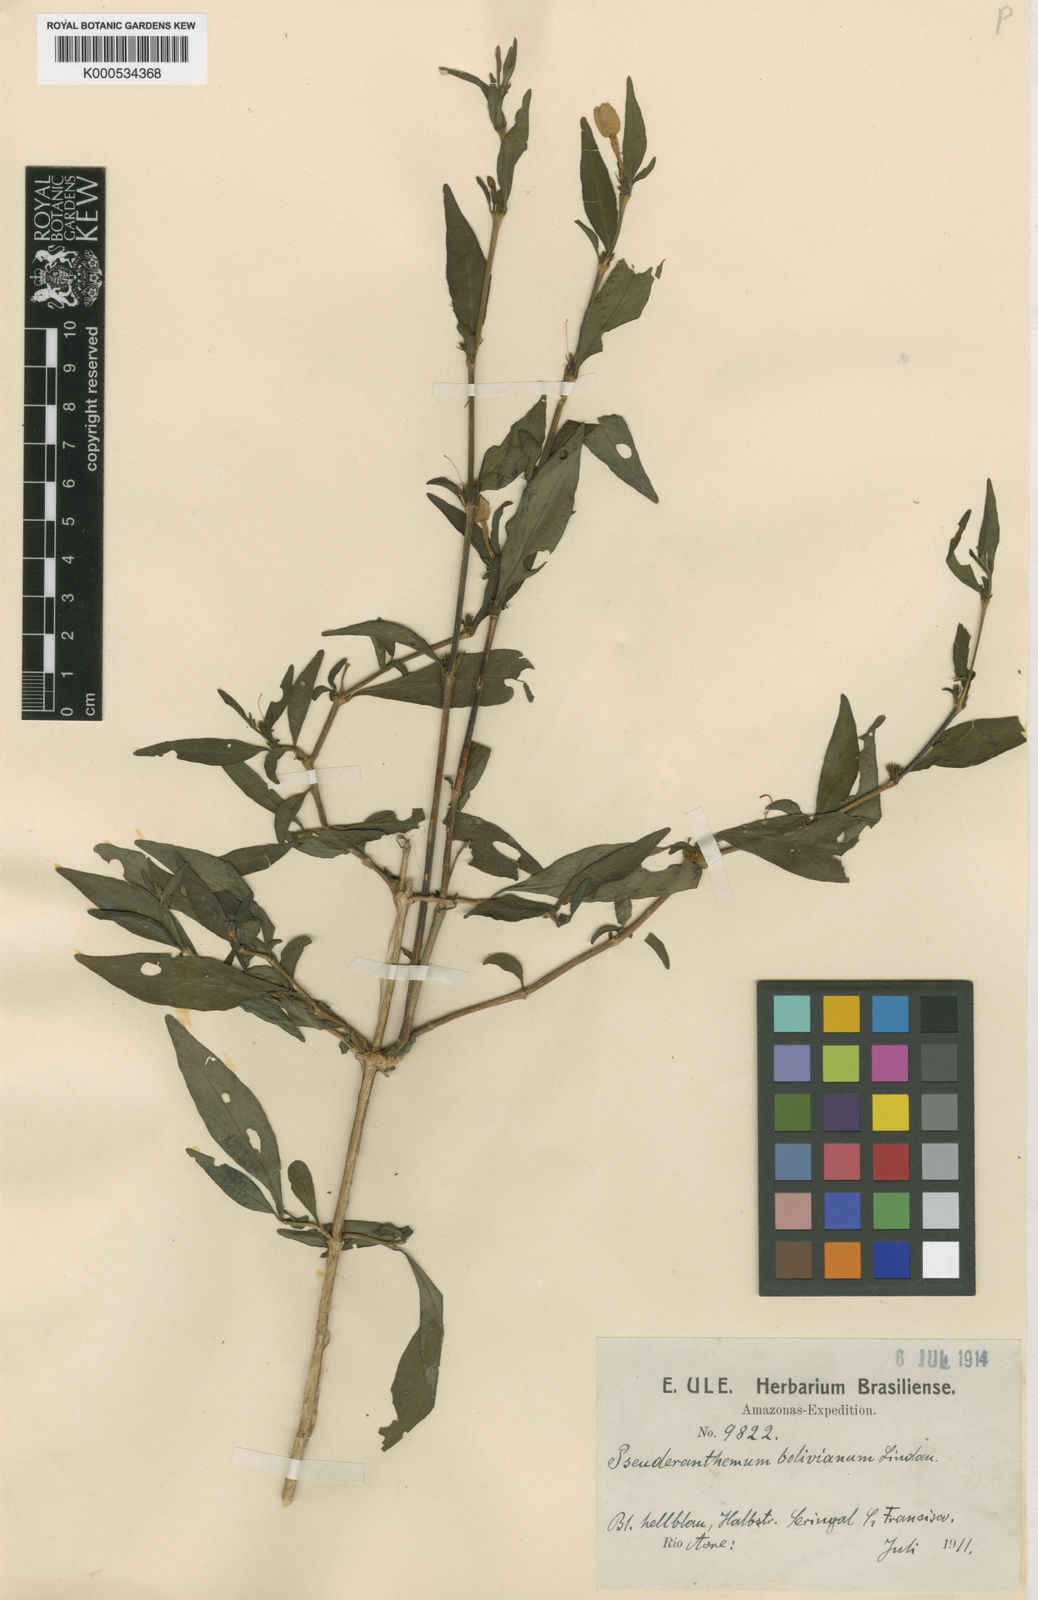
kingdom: Plantae
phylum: Tracheophyta
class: Magnoliopsida
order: Lamiales
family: Acanthaceae
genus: Pseuderanthemum
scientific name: Pseuderanthemum
